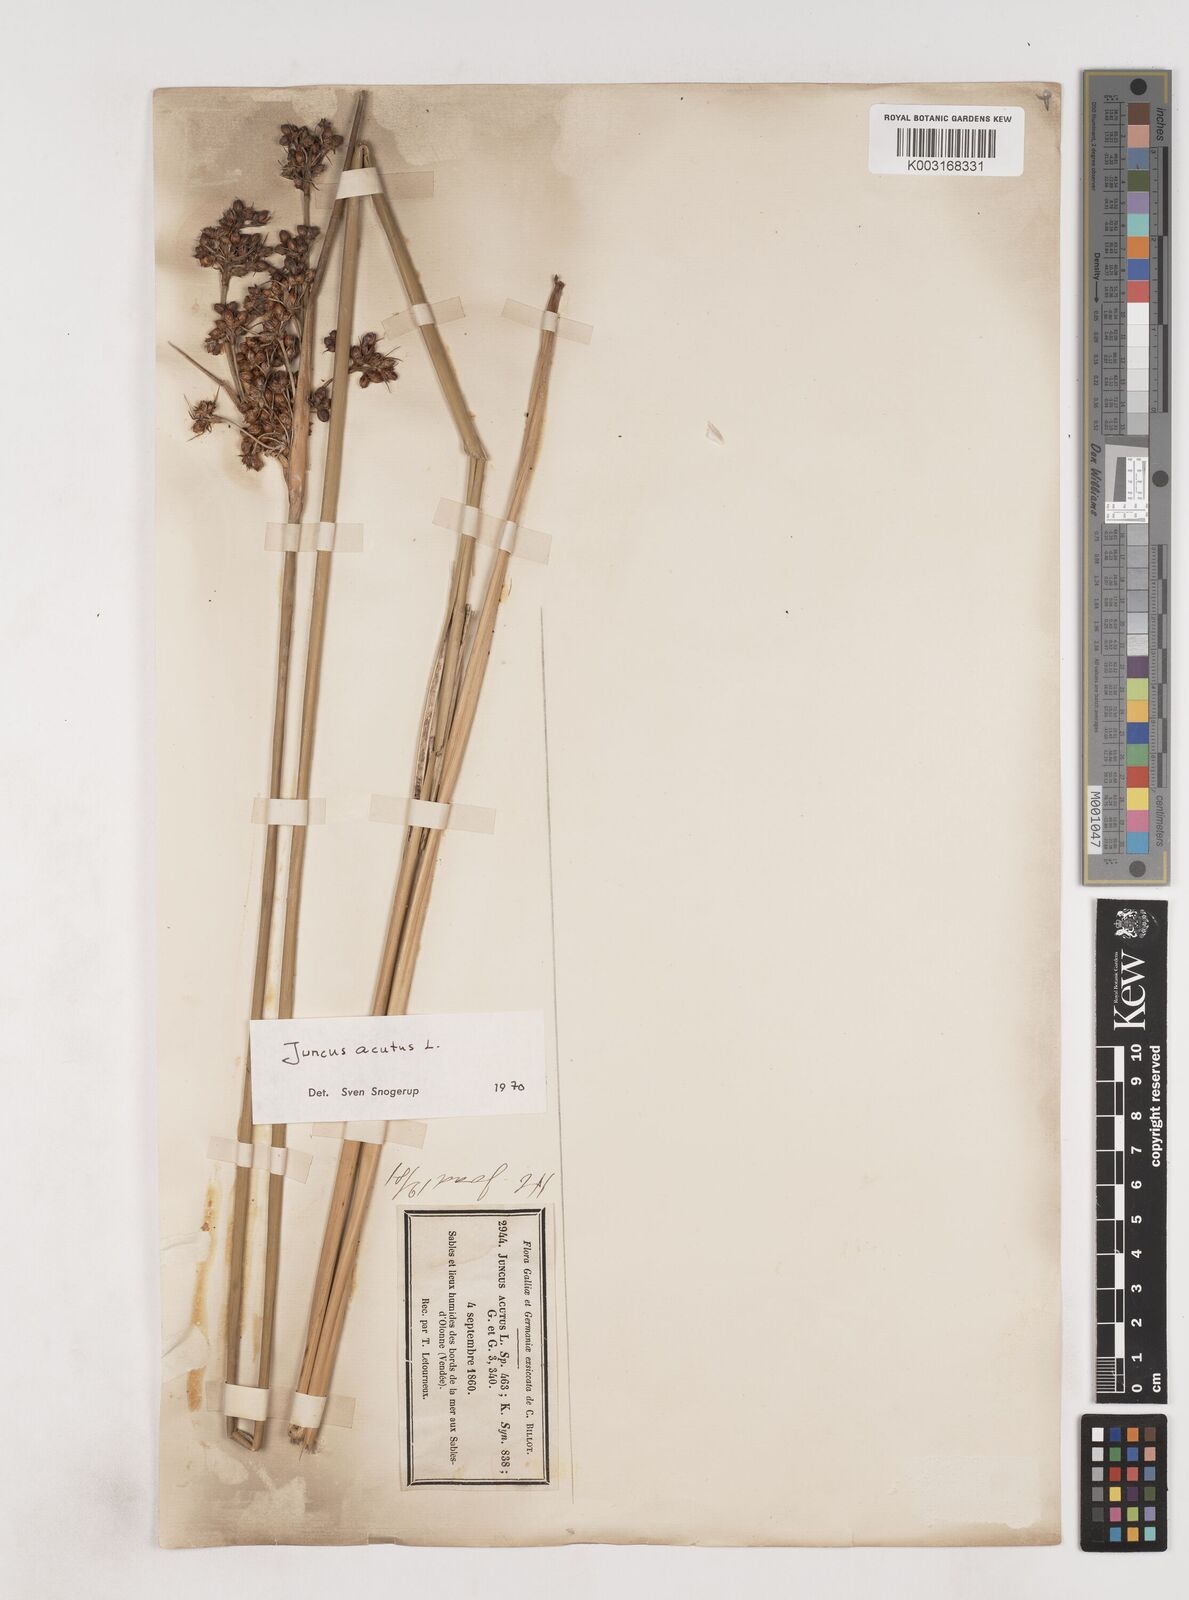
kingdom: Plantae
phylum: Tracheophyta
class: Liliopsida
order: Poales
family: Juncaceae
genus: Juncus
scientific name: Juncus acutus
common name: Sharp rush
